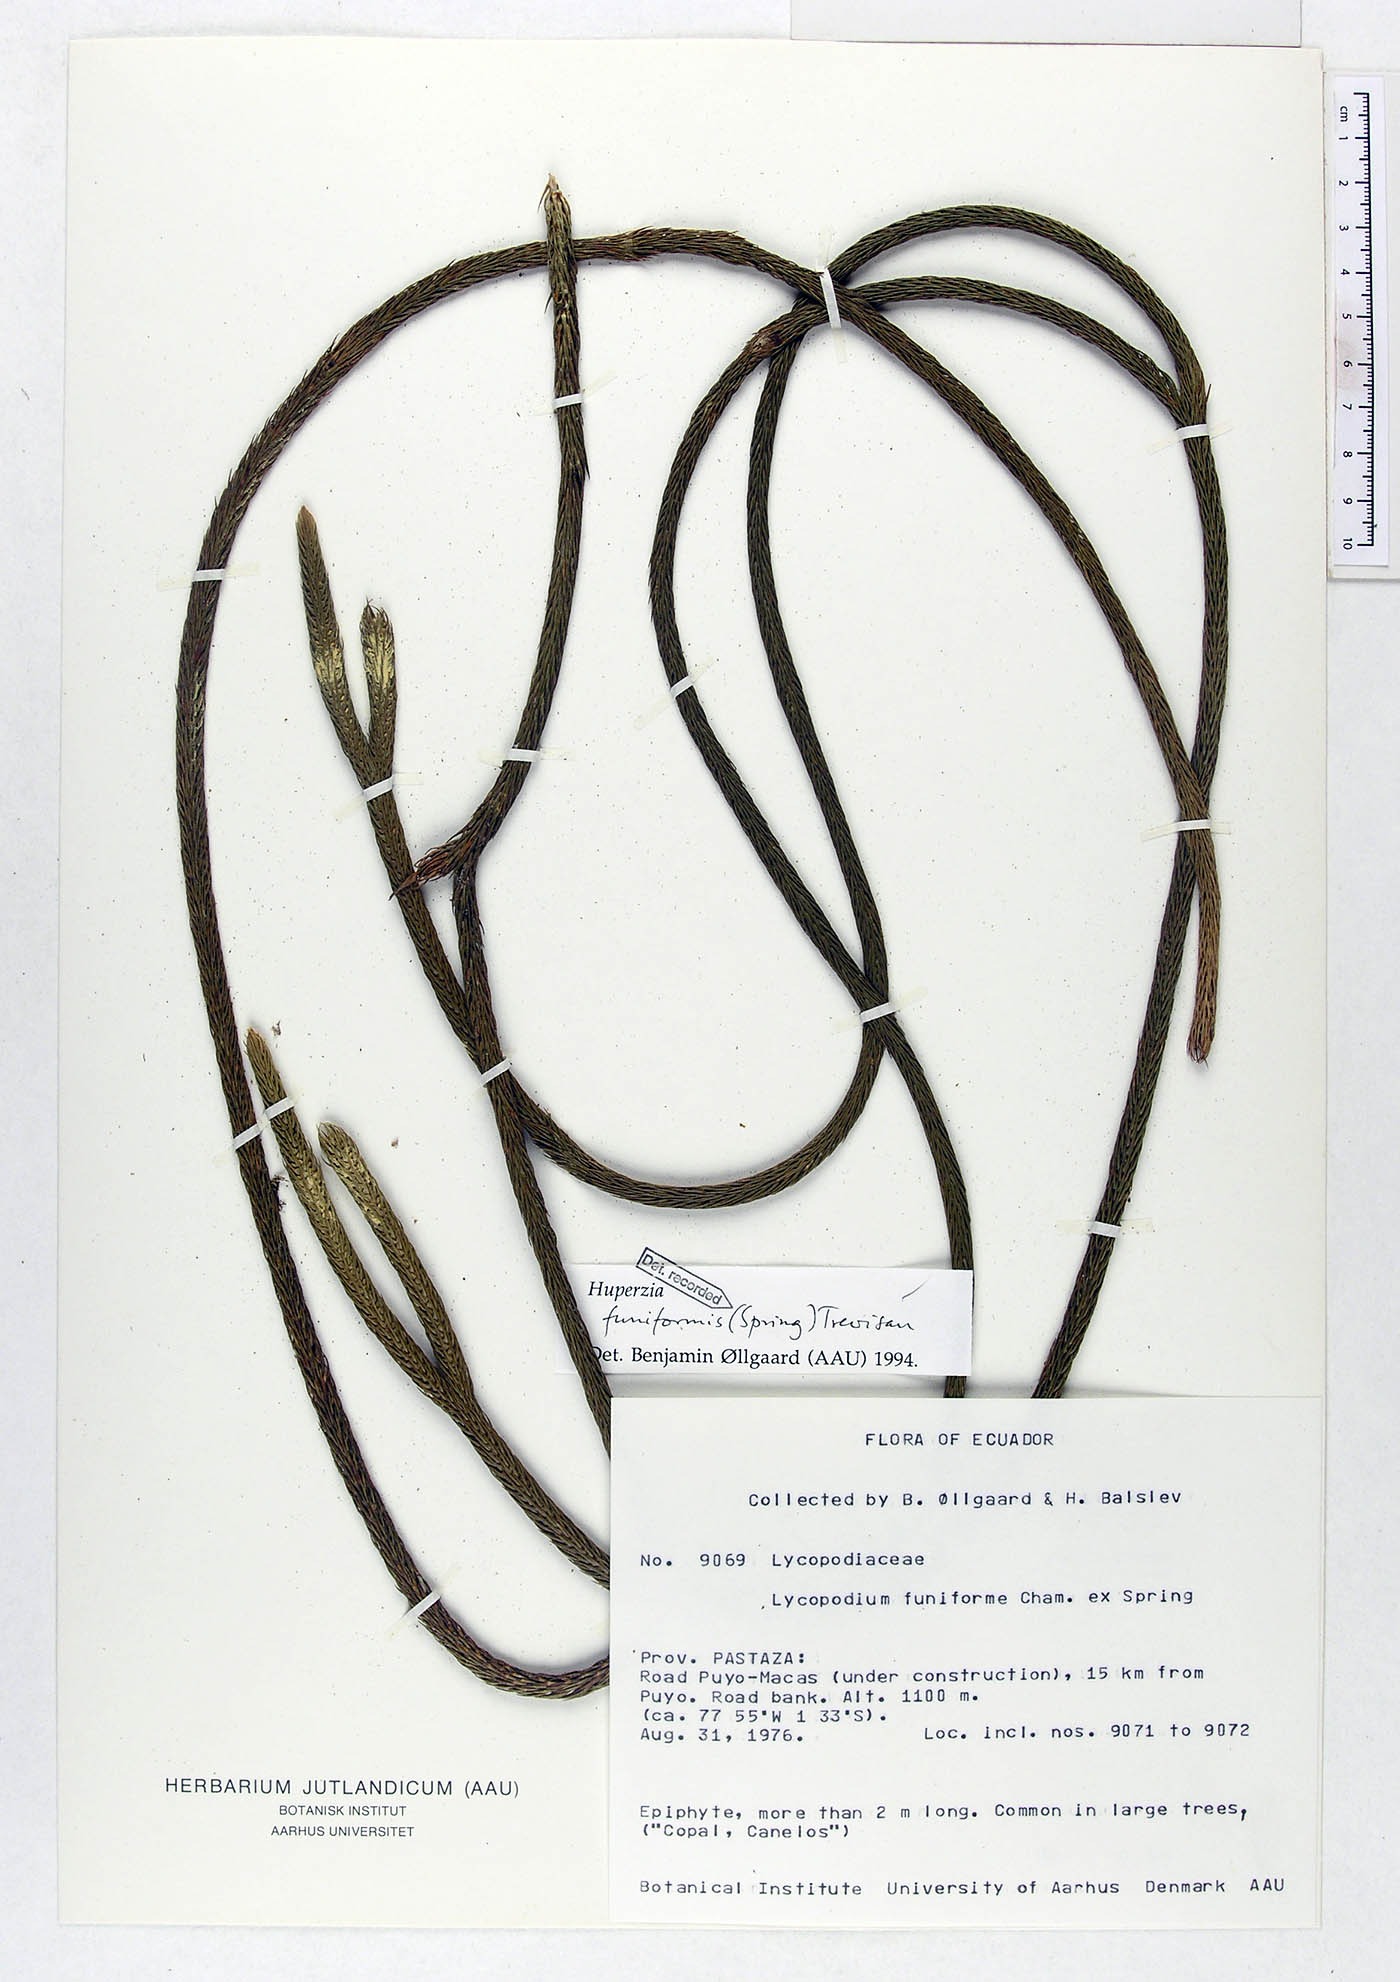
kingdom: Plantae
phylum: Tracheophyta
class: Lycopodiopsida
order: Lycopodiales
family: Lycopodiaceae
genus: Phlegmariurus
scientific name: Phlegmariurus funiformis
